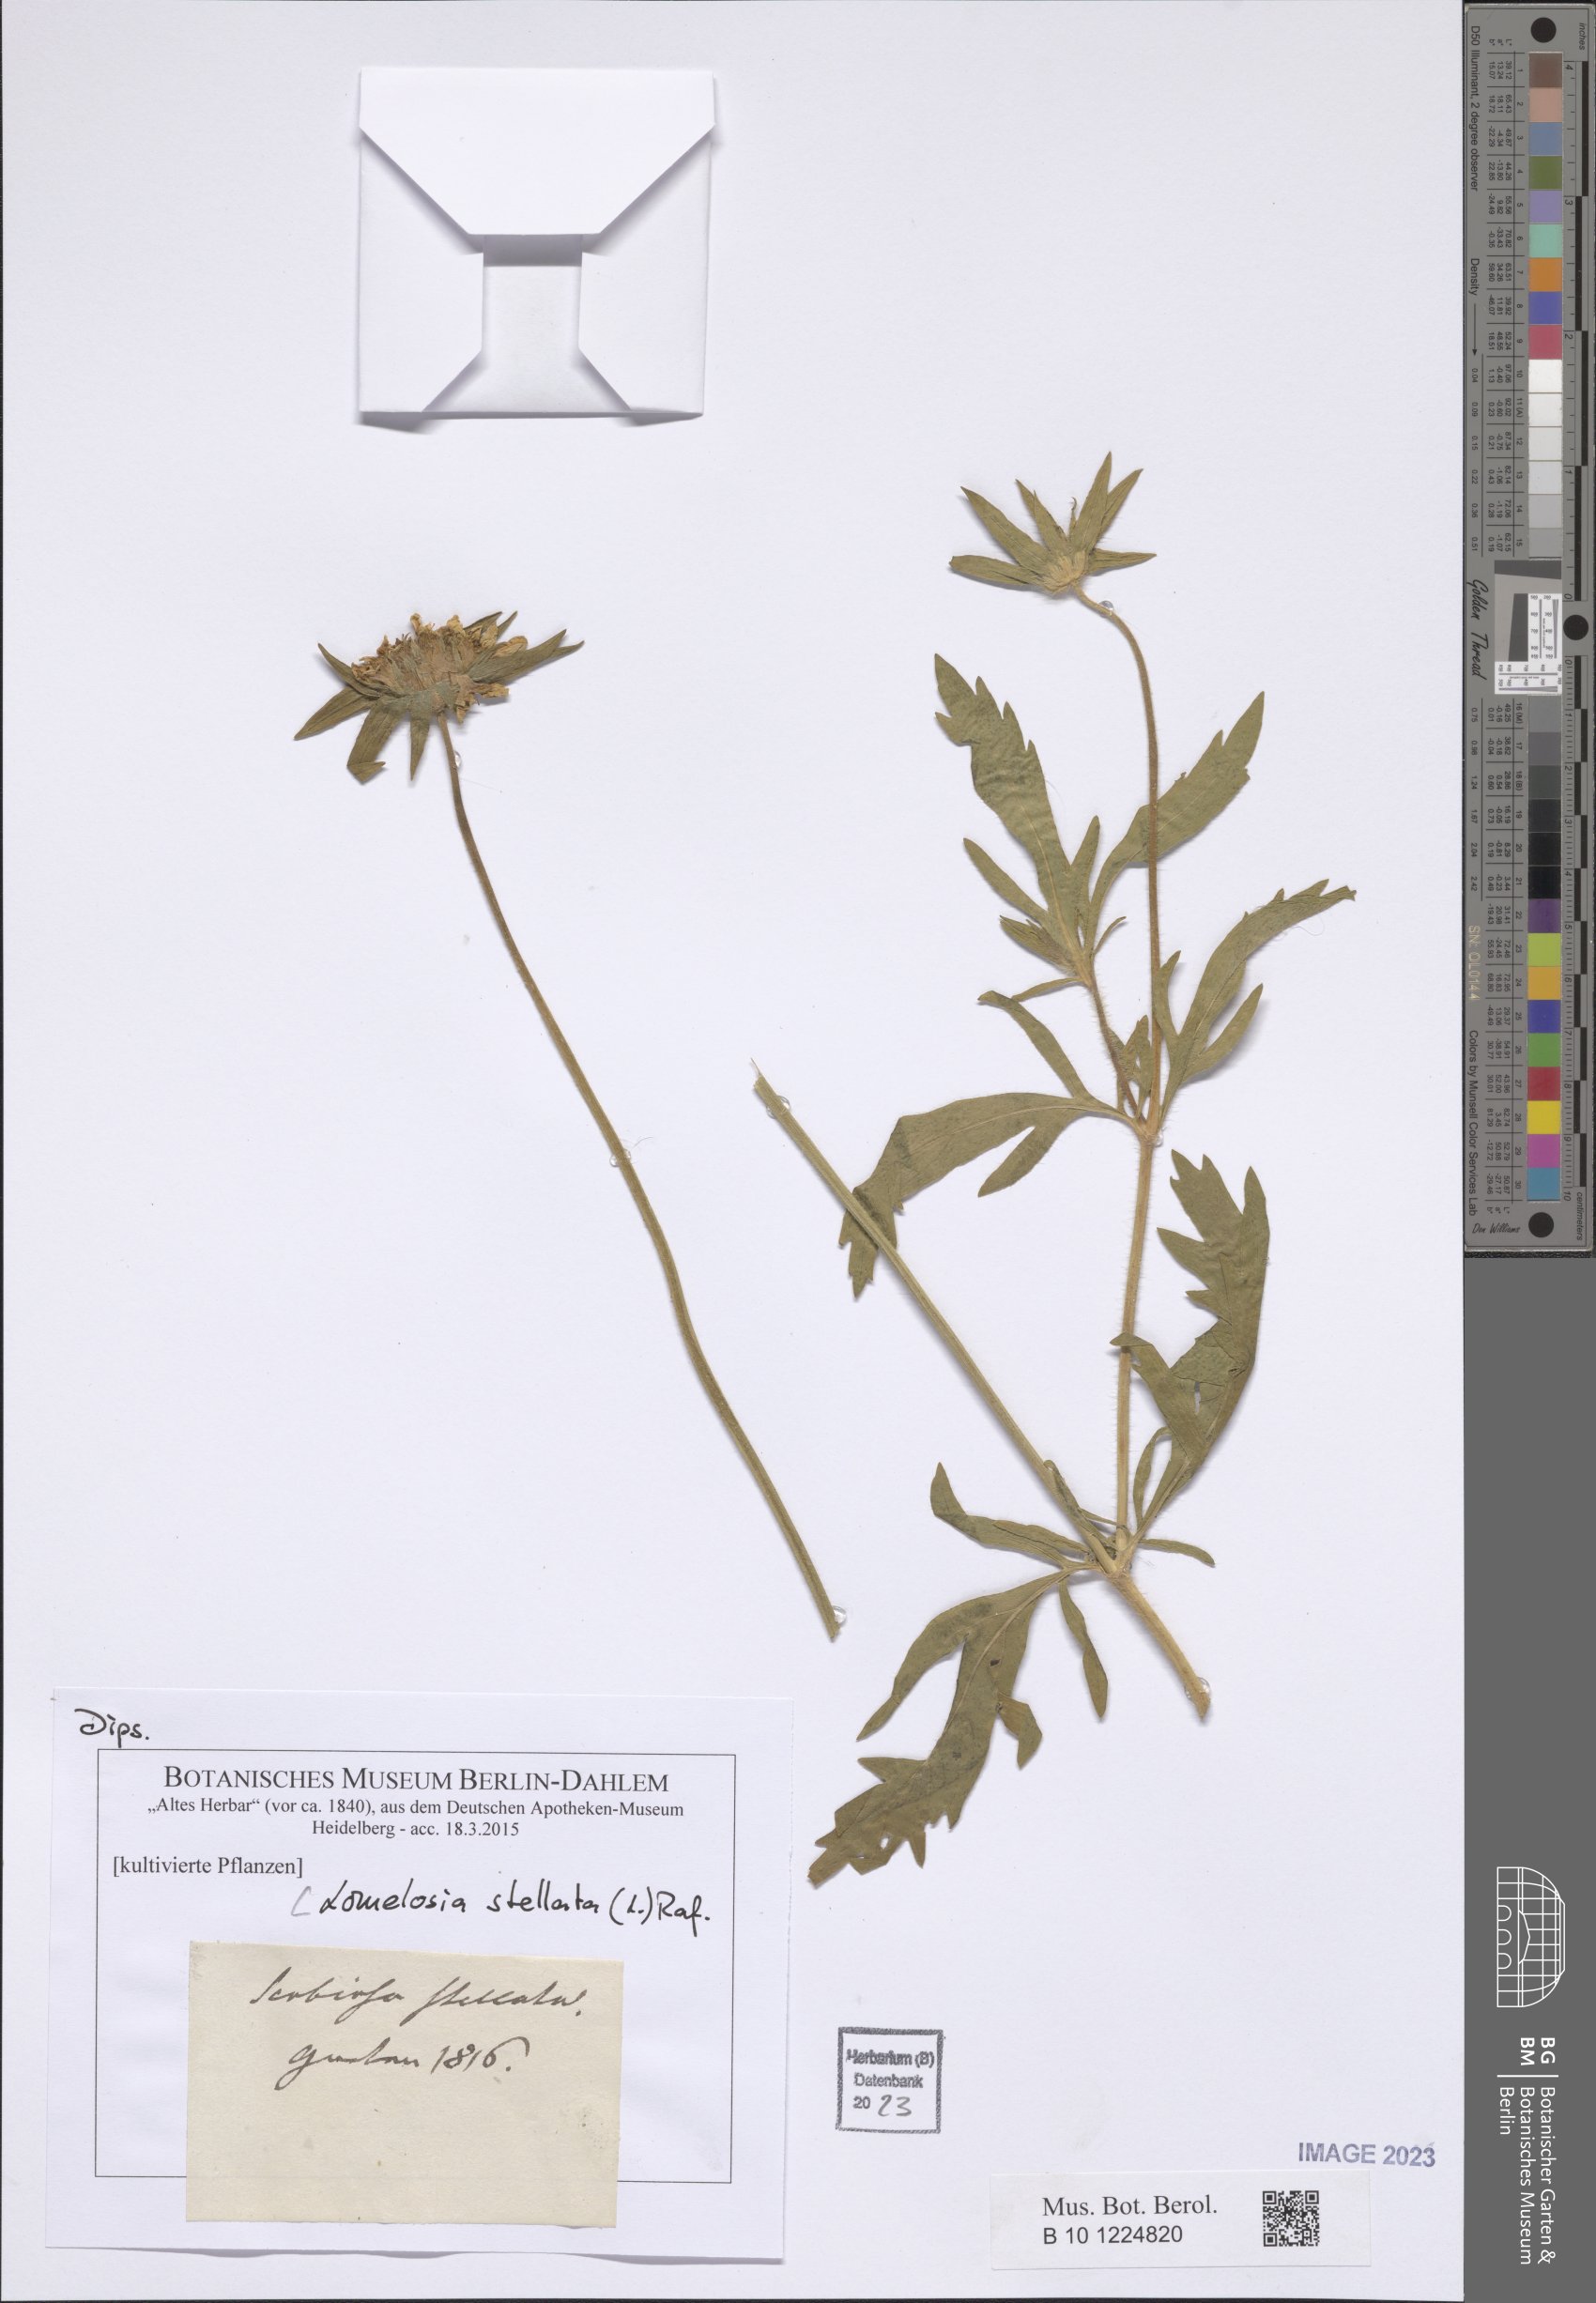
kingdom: Plantae
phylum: Tracheophyta
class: Magnoliopsida
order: Dipsacales
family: Caprifoliaceae
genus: Lomelosia
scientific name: Lomelosia stellata
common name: Teasel
